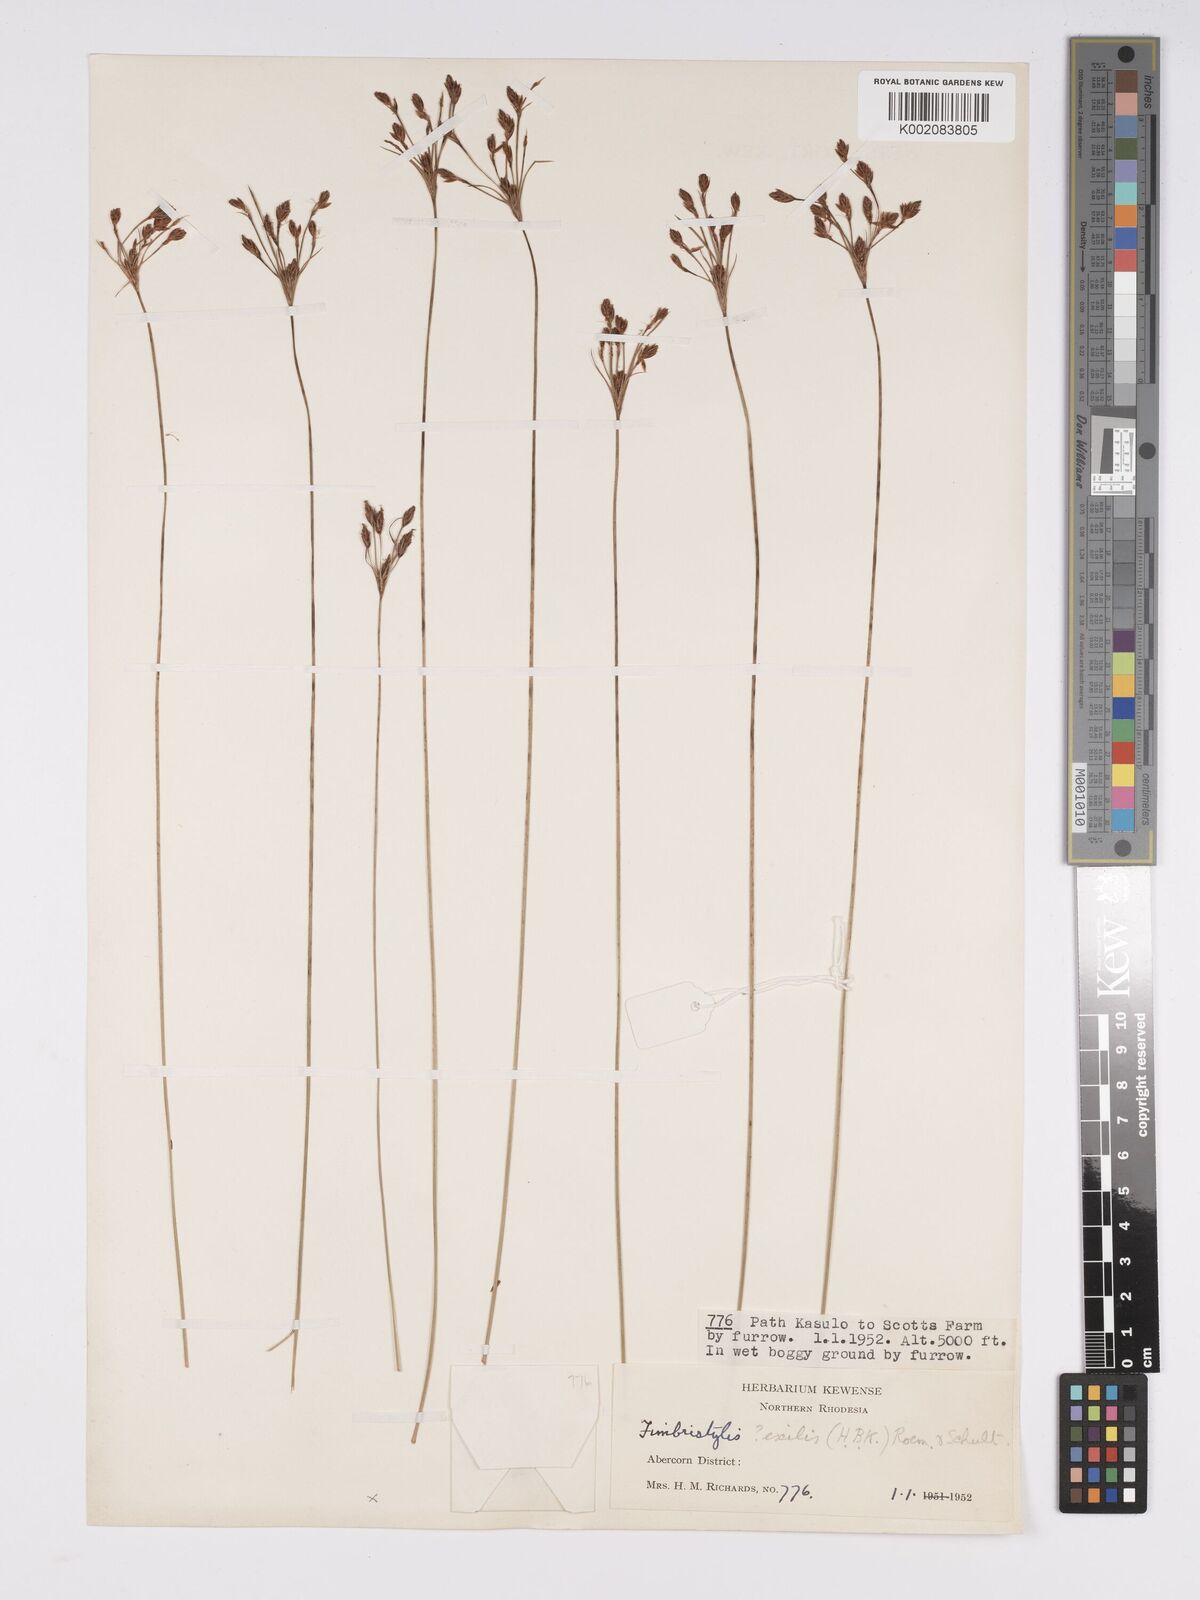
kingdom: Plantae
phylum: Tracheophyta
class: Liliopsida
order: Poales
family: Cyperaceae
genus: Bulbostylis
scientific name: Bulbostylis hispidula
